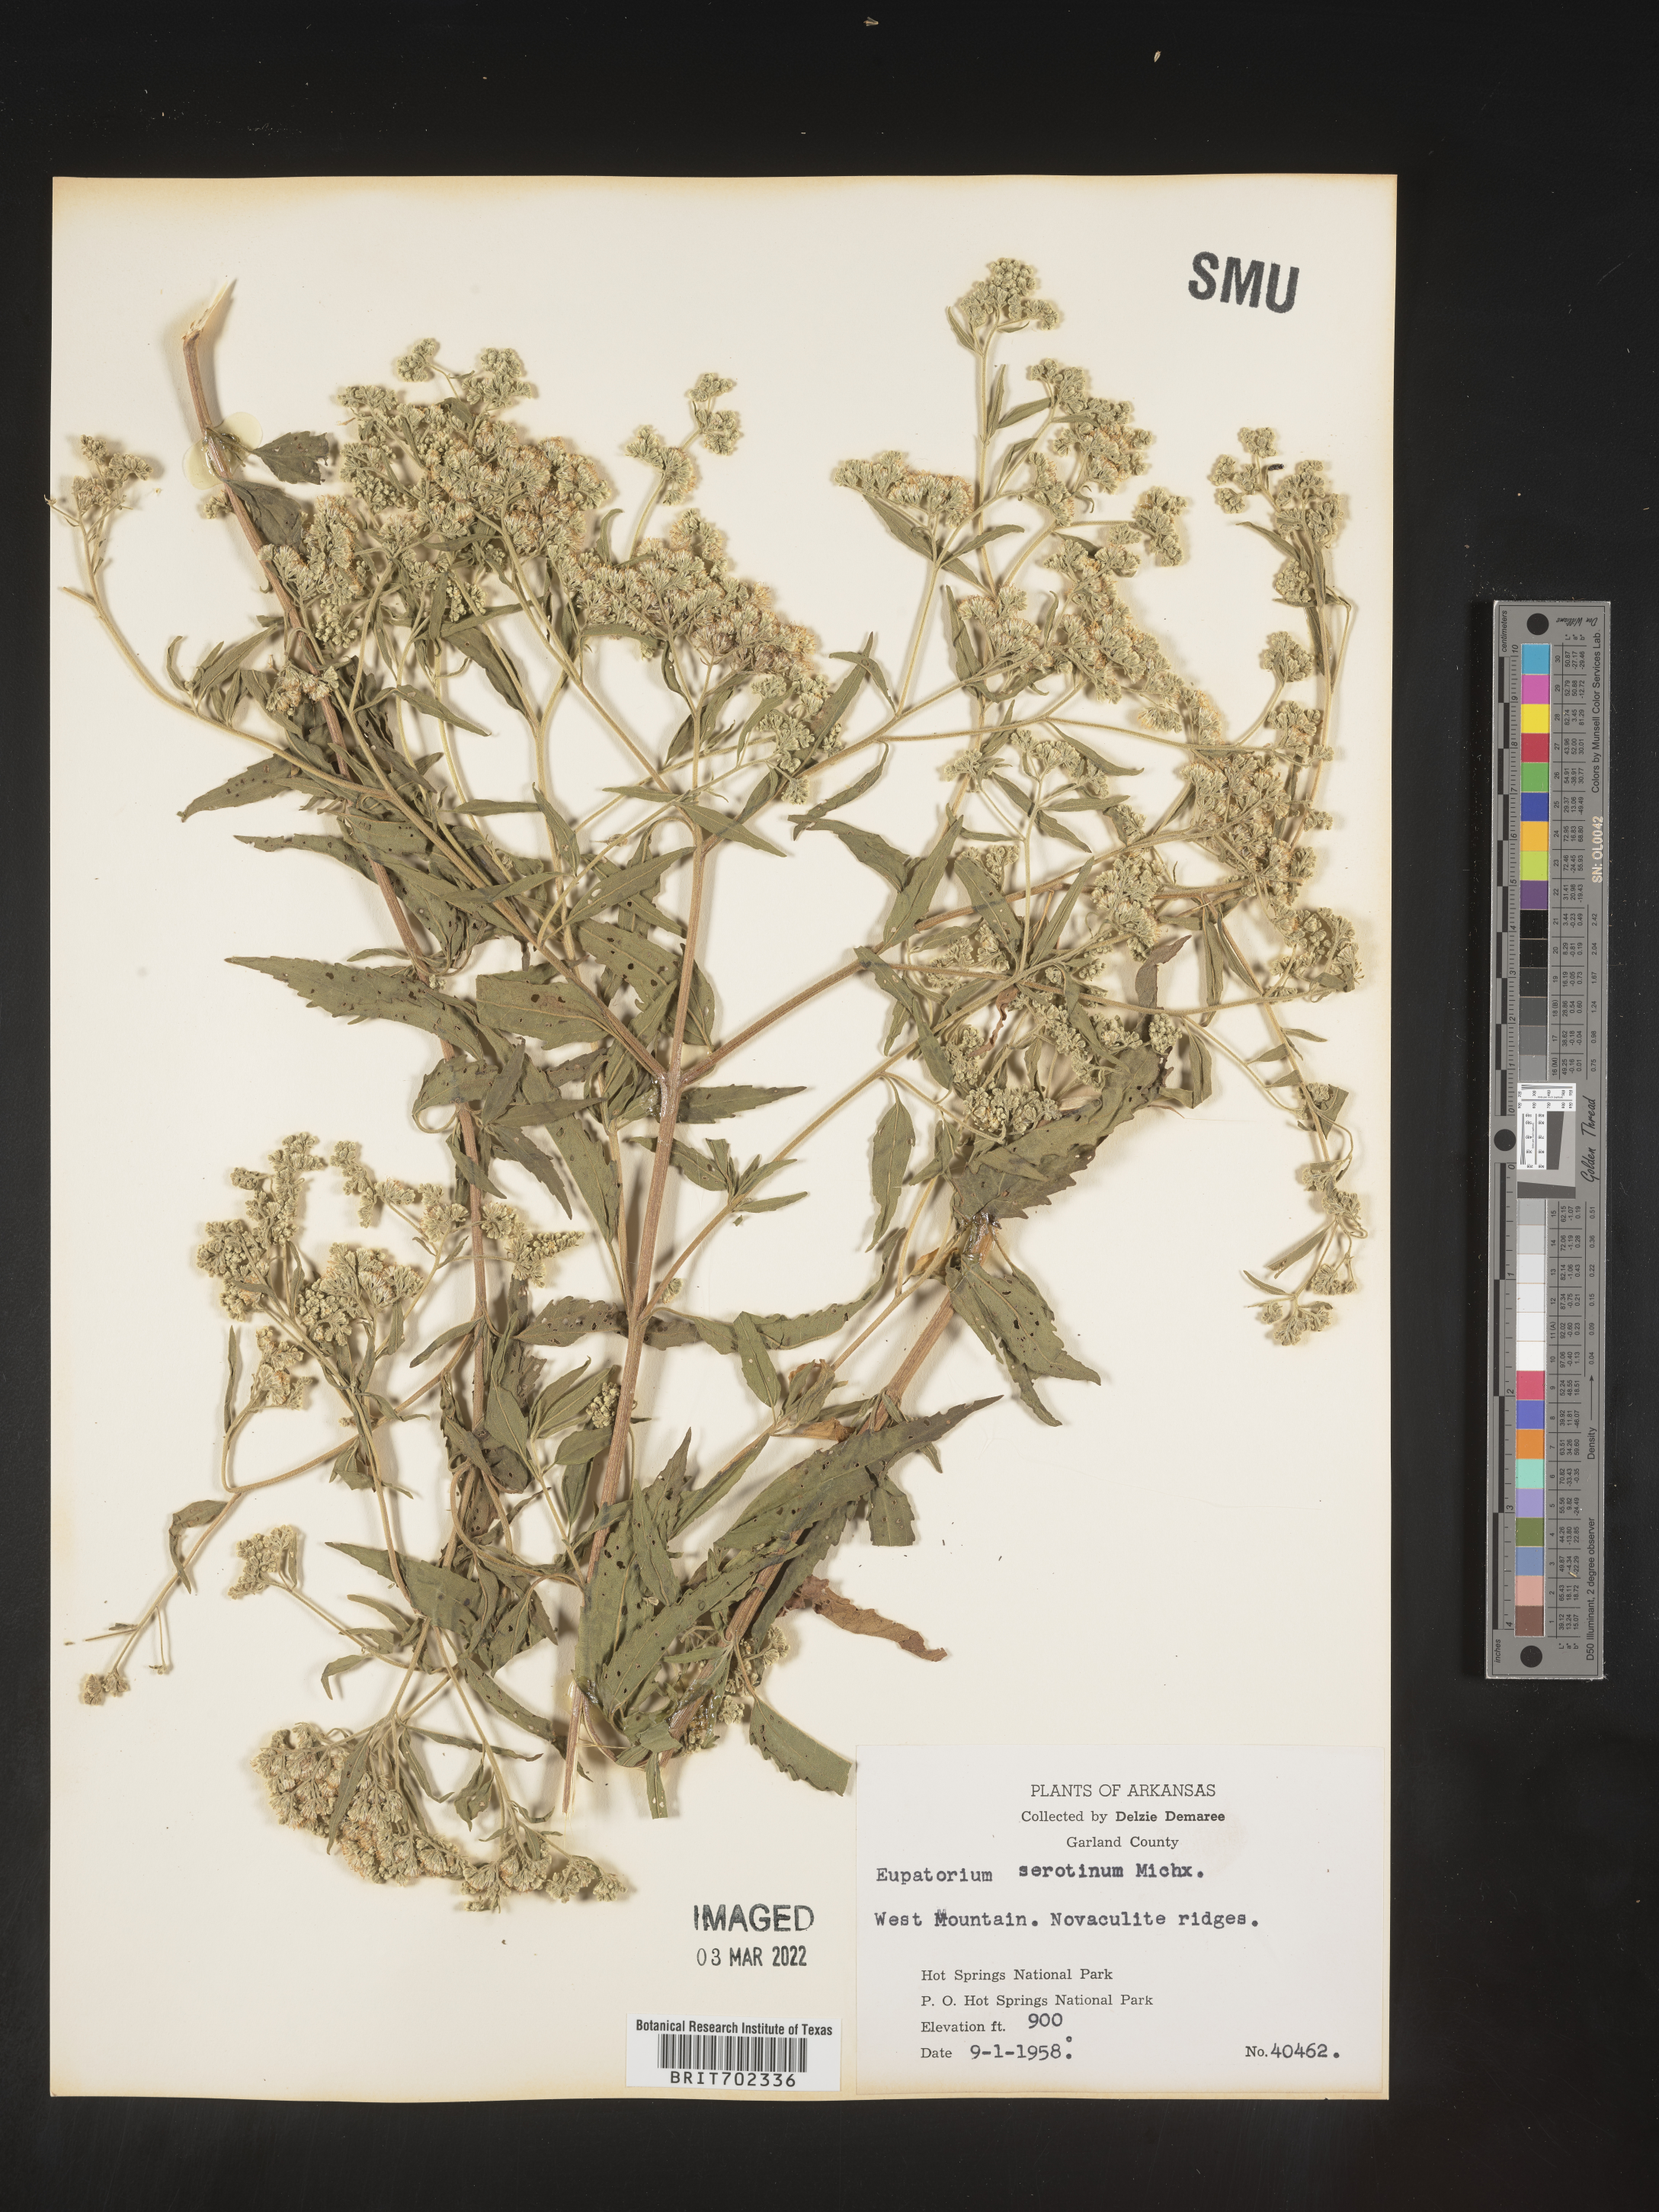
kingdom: Plantae
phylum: Tracheophyta
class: Magnoliopsida
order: Asterales
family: Asteraceae
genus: Eupatorium
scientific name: Eupatorium serotinum
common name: Late boneset
